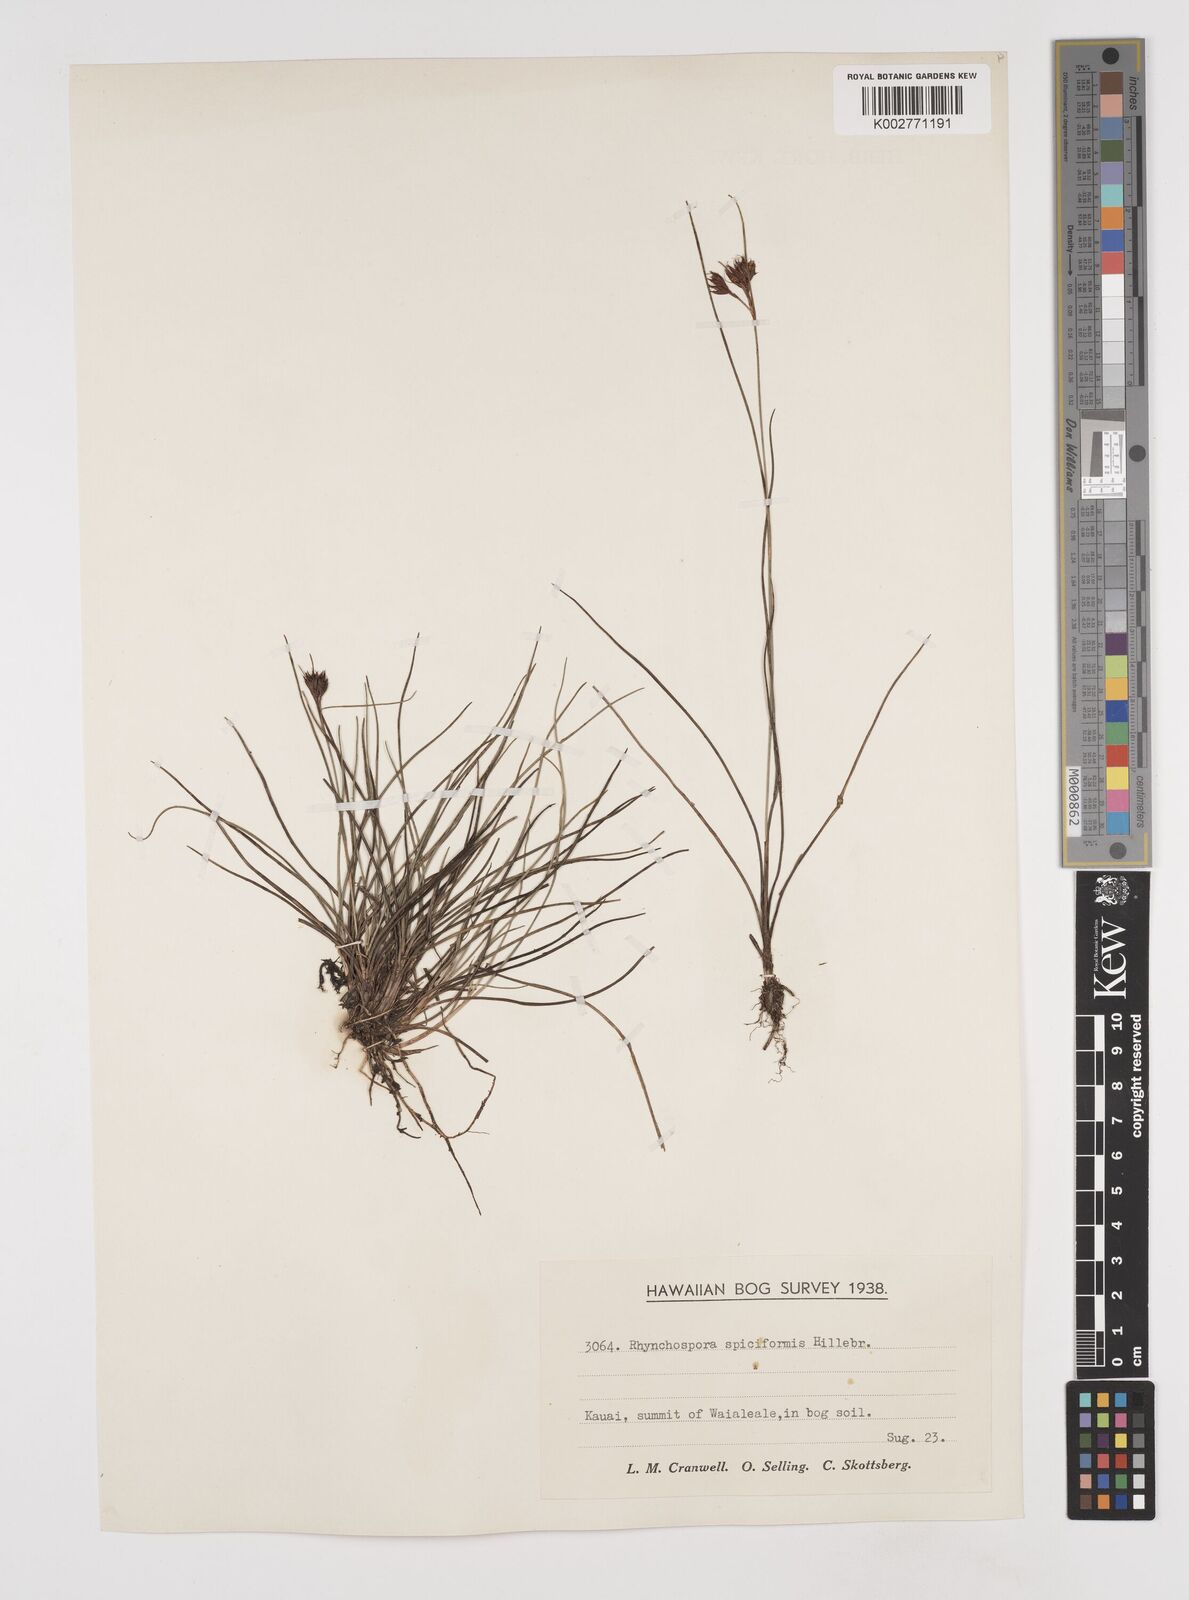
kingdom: Plantae
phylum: Tracheophyta
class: Liliopsida
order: Poales
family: Cyperaceae
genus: Rhynchospora
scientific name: Rhynchospora chinensis
